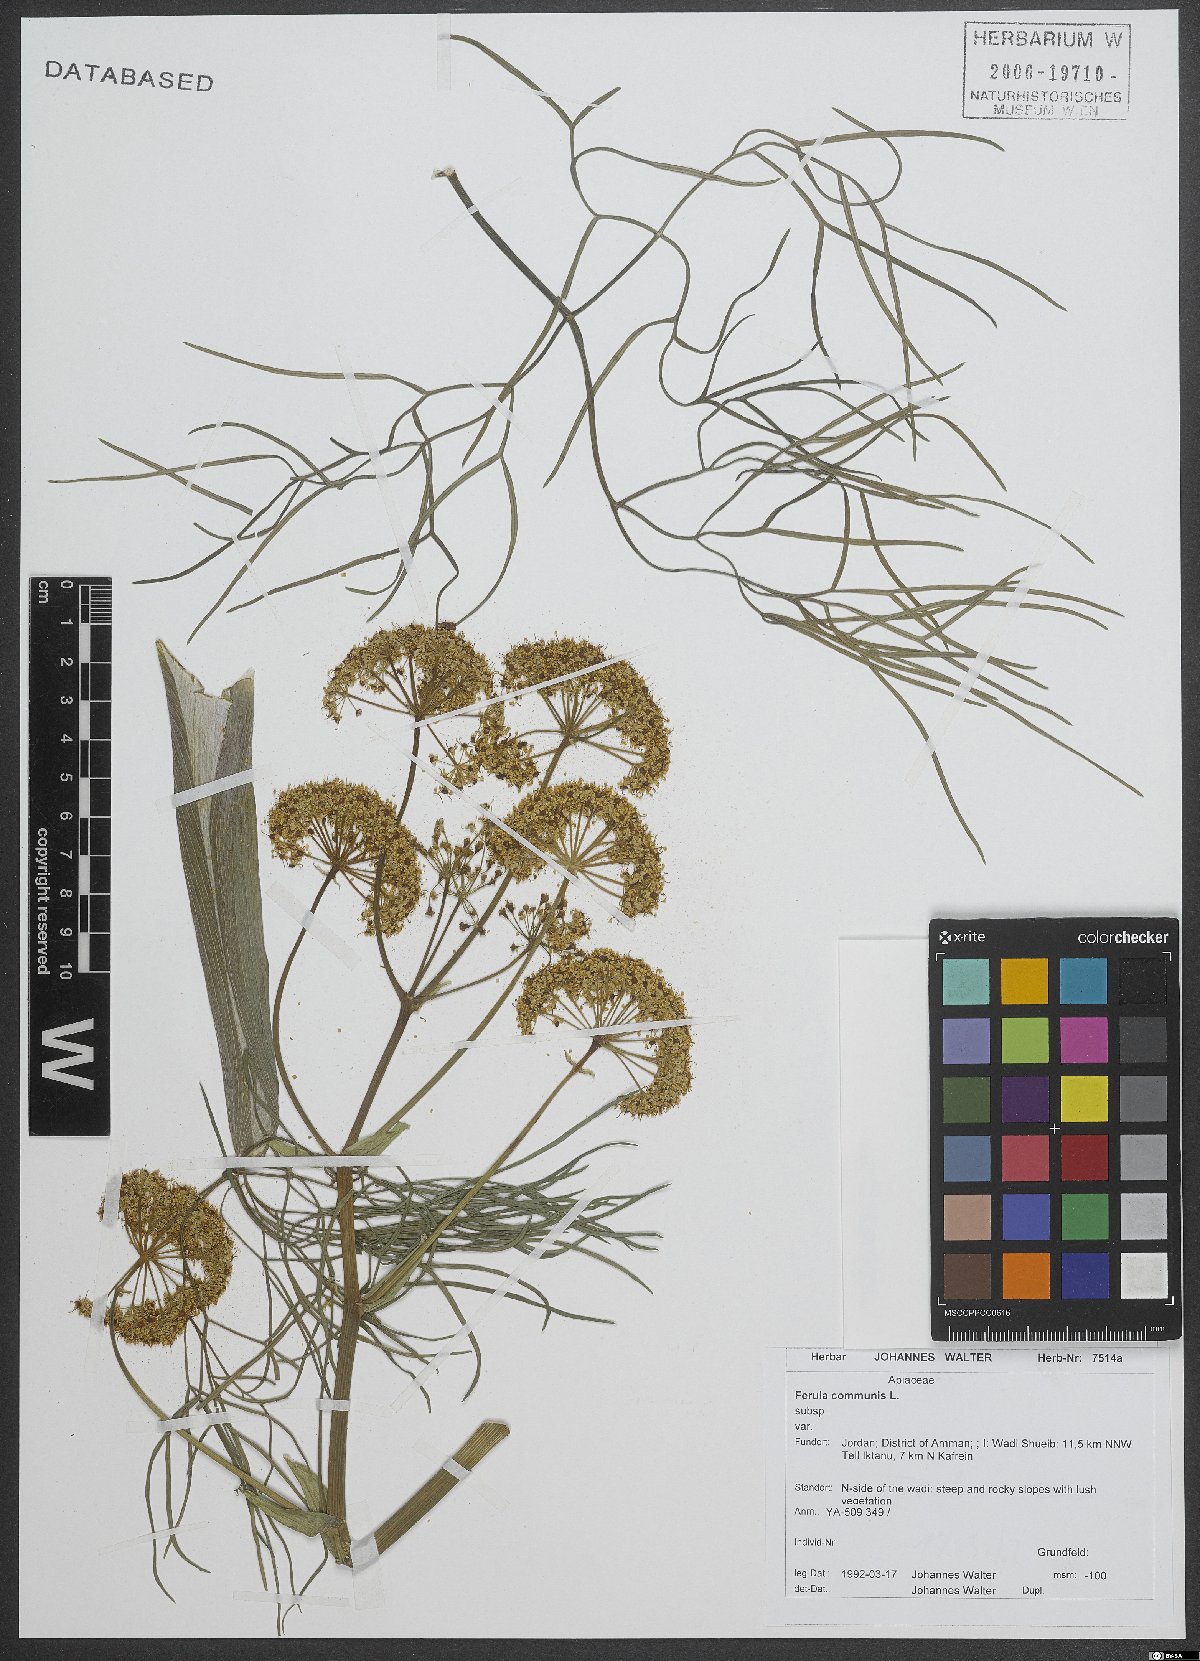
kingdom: Plantae
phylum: Tracheophyta
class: Magnoliopsida
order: Apiales
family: Apiaceae
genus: Ferula
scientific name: Ferula communis
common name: Giant fennel
